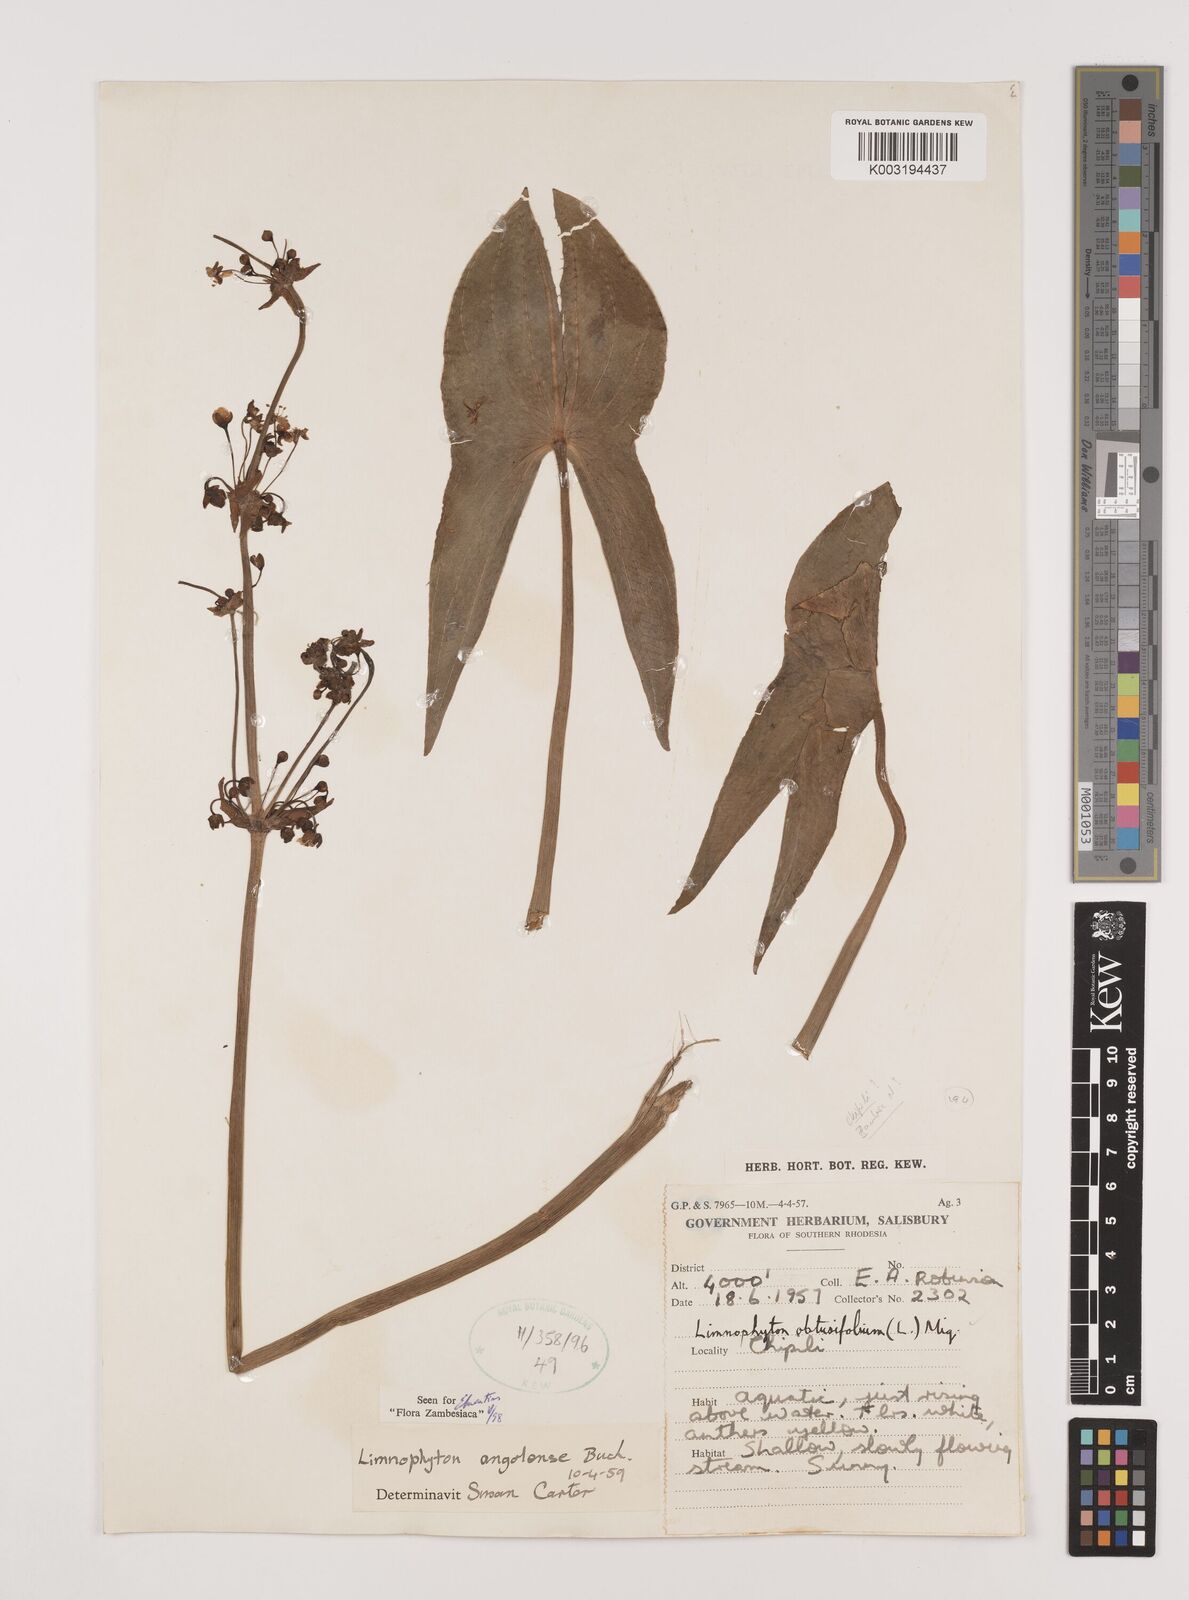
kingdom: Plantae
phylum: Tracheophyta
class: Liliopsida
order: Alismatales
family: Alismataceae
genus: Limnophyton
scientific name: Limnophyton angolense
